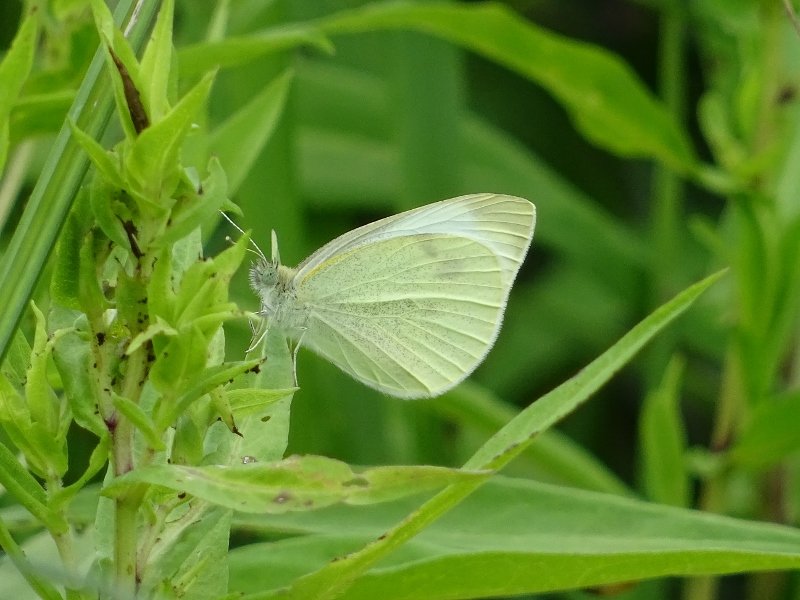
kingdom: Animalia
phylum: Arthropoda
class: Insecta
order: Lepidoptera
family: Pieridae
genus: Pieris
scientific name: Pieris rapae
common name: Cabbage White
